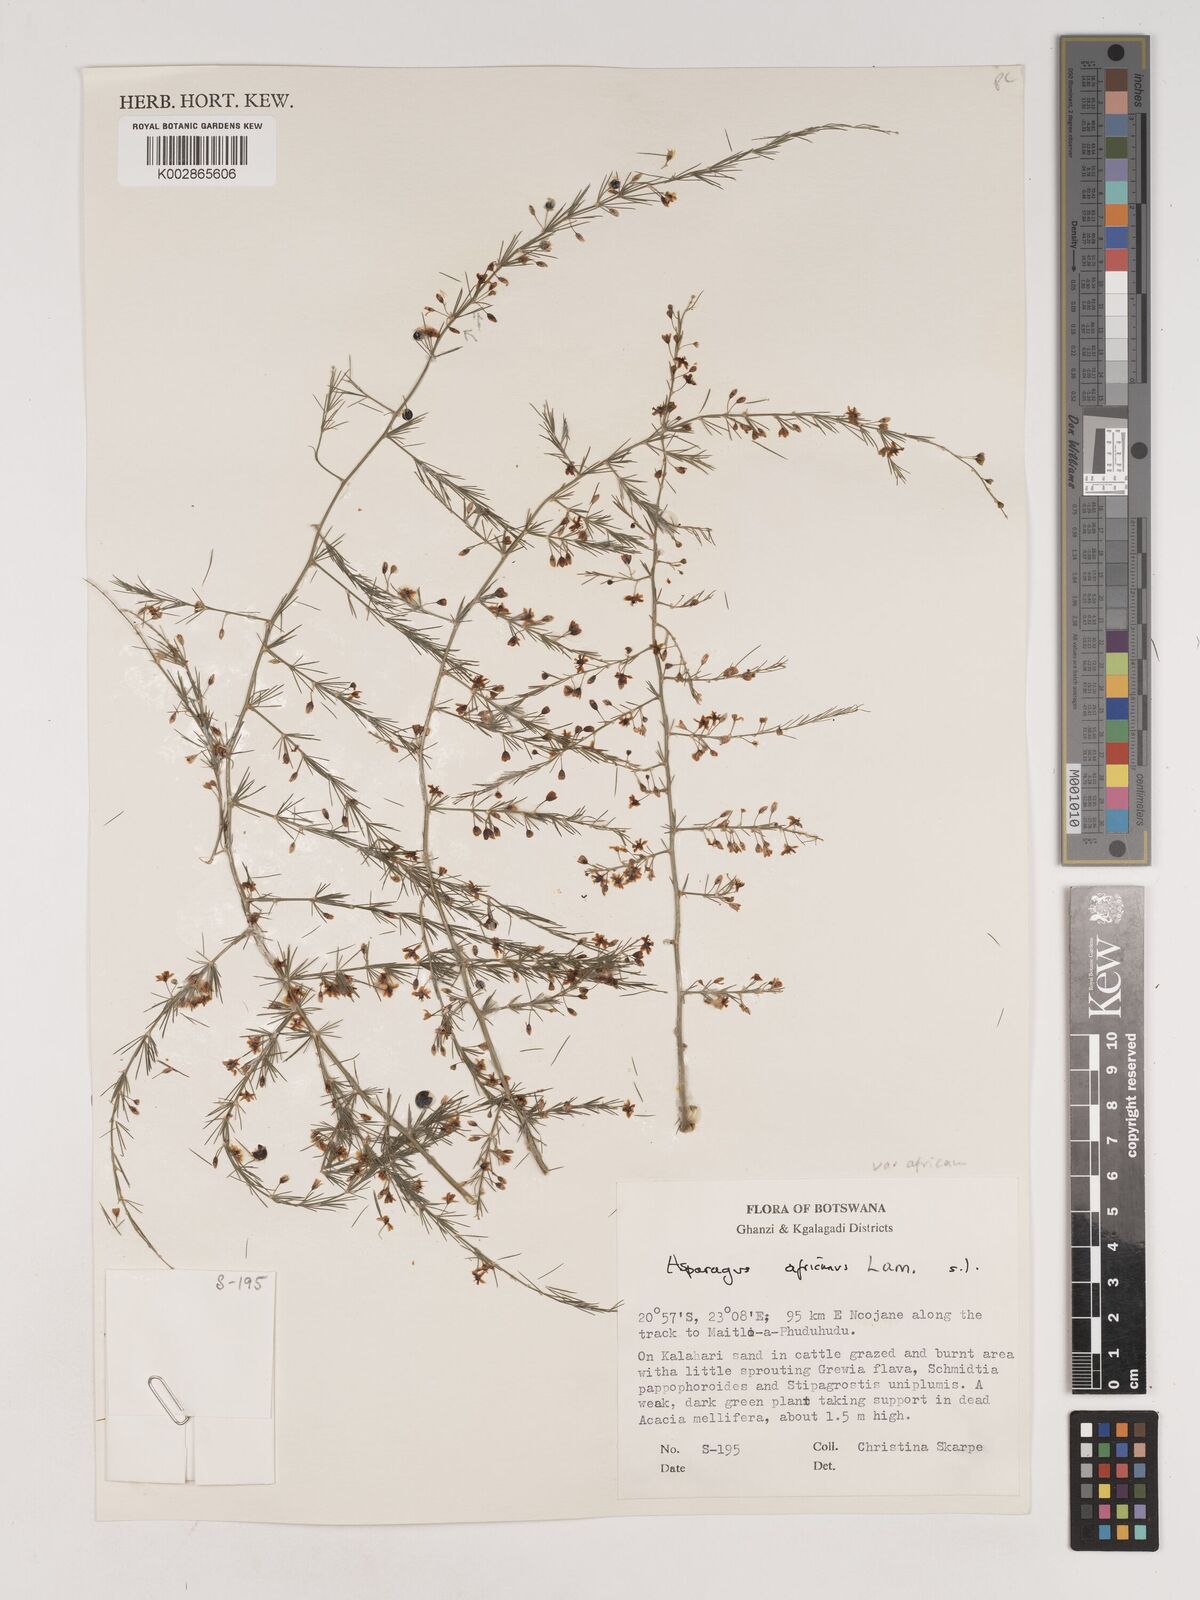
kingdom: Plantae
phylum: Tracheophyta
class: Liliopsida
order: Asparagales
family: Asparagaceae
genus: Asparagus
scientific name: Asparagus africanus
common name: Asparagus-fern
